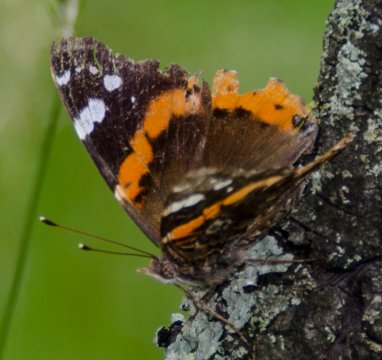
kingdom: Animalia
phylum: Arthropoda
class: Insecta
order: Lepidoptera
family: Nymphalidae
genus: Vanessa
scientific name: Vanessa atalanta
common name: Red Admiral
